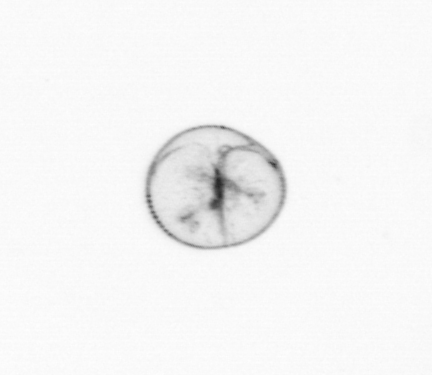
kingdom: Chromista
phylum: Myzozoa
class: Dinophyceae
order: Noctilucales
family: Noctilucaceae
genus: Noctiluca
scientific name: Noctiluca scintillans
